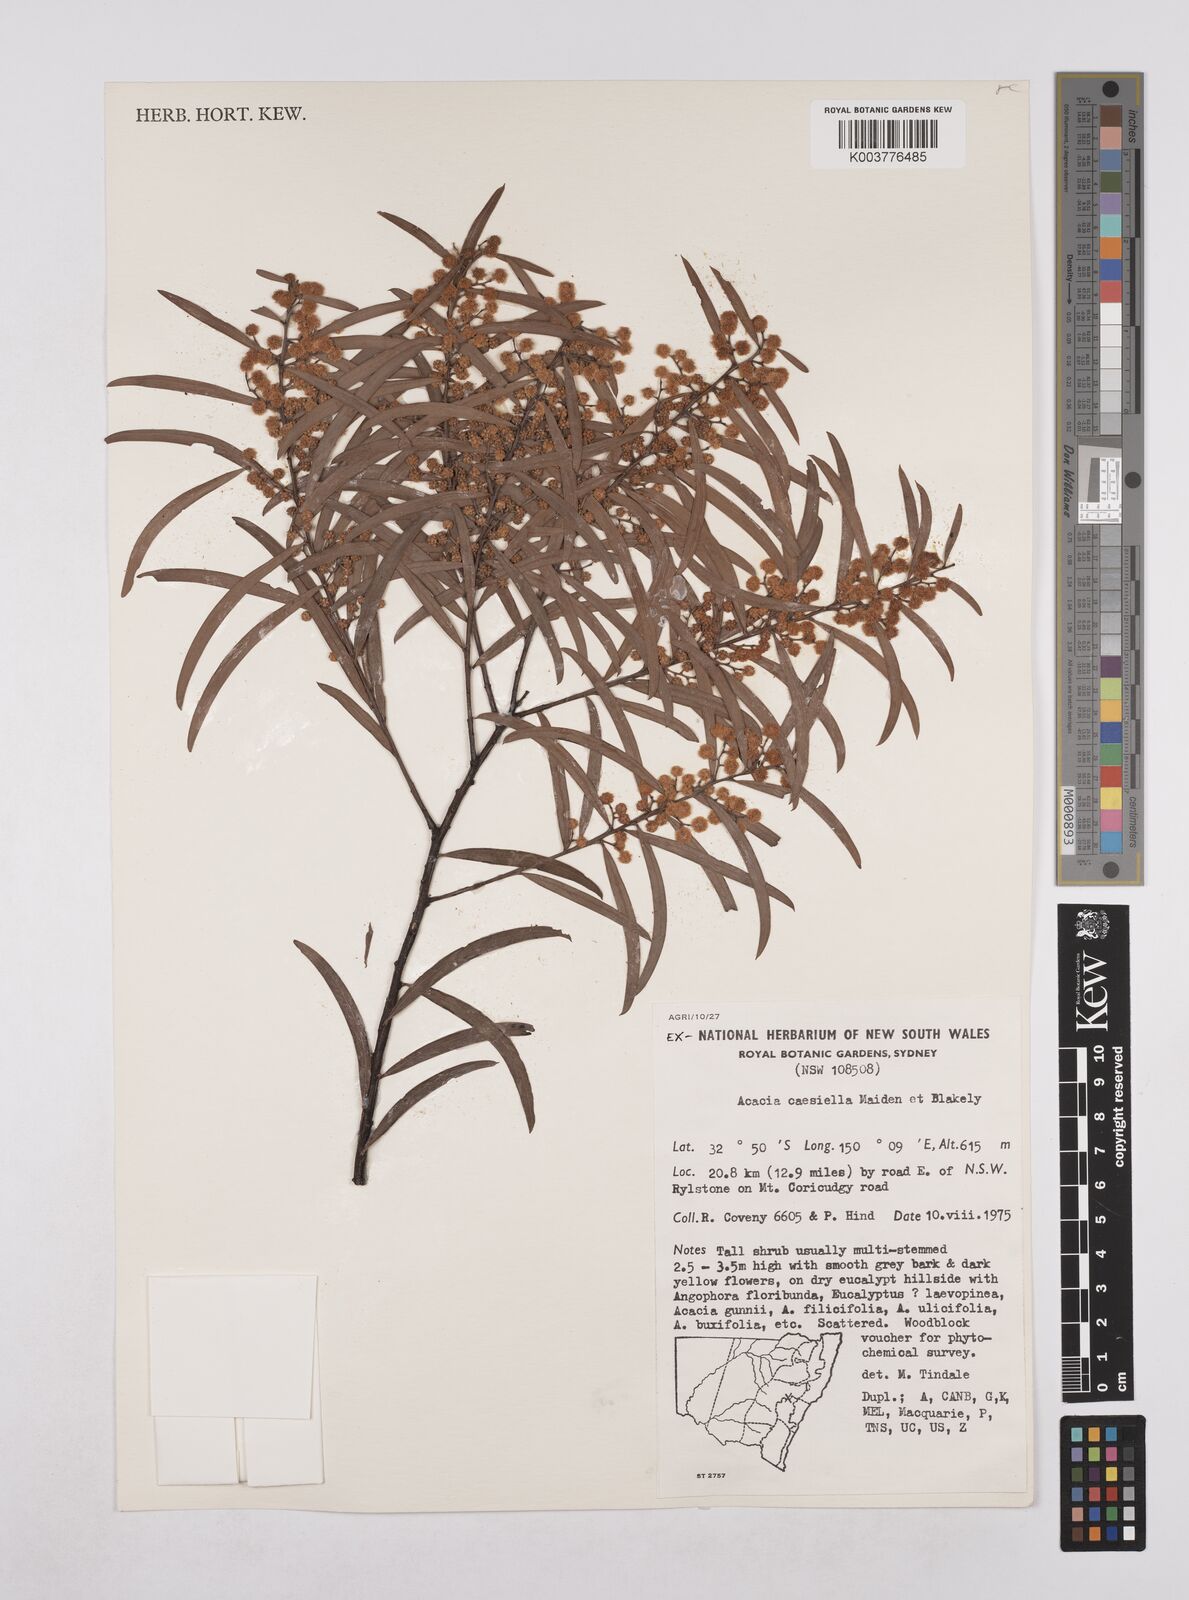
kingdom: Plantae
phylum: Tracheophyta
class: Magnoliopsida
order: Fabales
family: Fabaceae
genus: Acacia
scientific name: Acacia caesiella
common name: Tableland wattle
